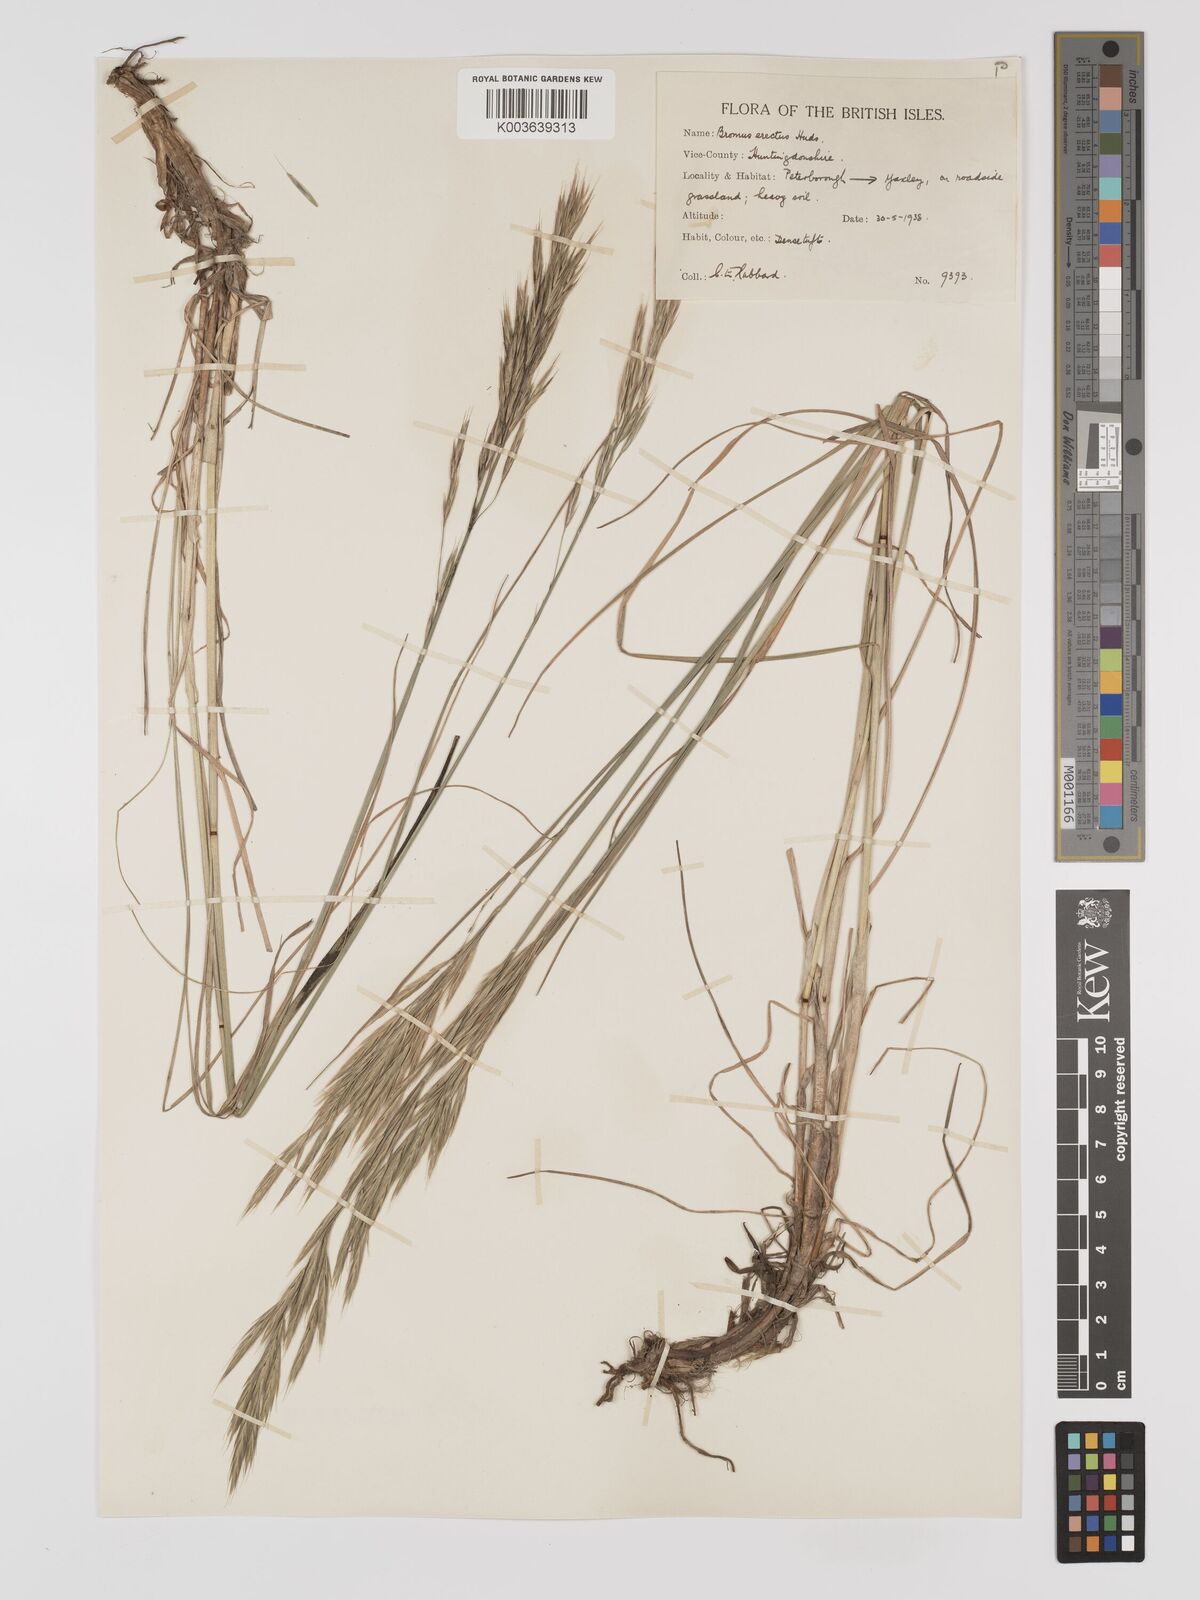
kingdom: Plantae
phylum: Tracheophyta
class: Liliopsida
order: Poales
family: Poaceae
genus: Bromus
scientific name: Bromus erectus
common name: Erect brome
